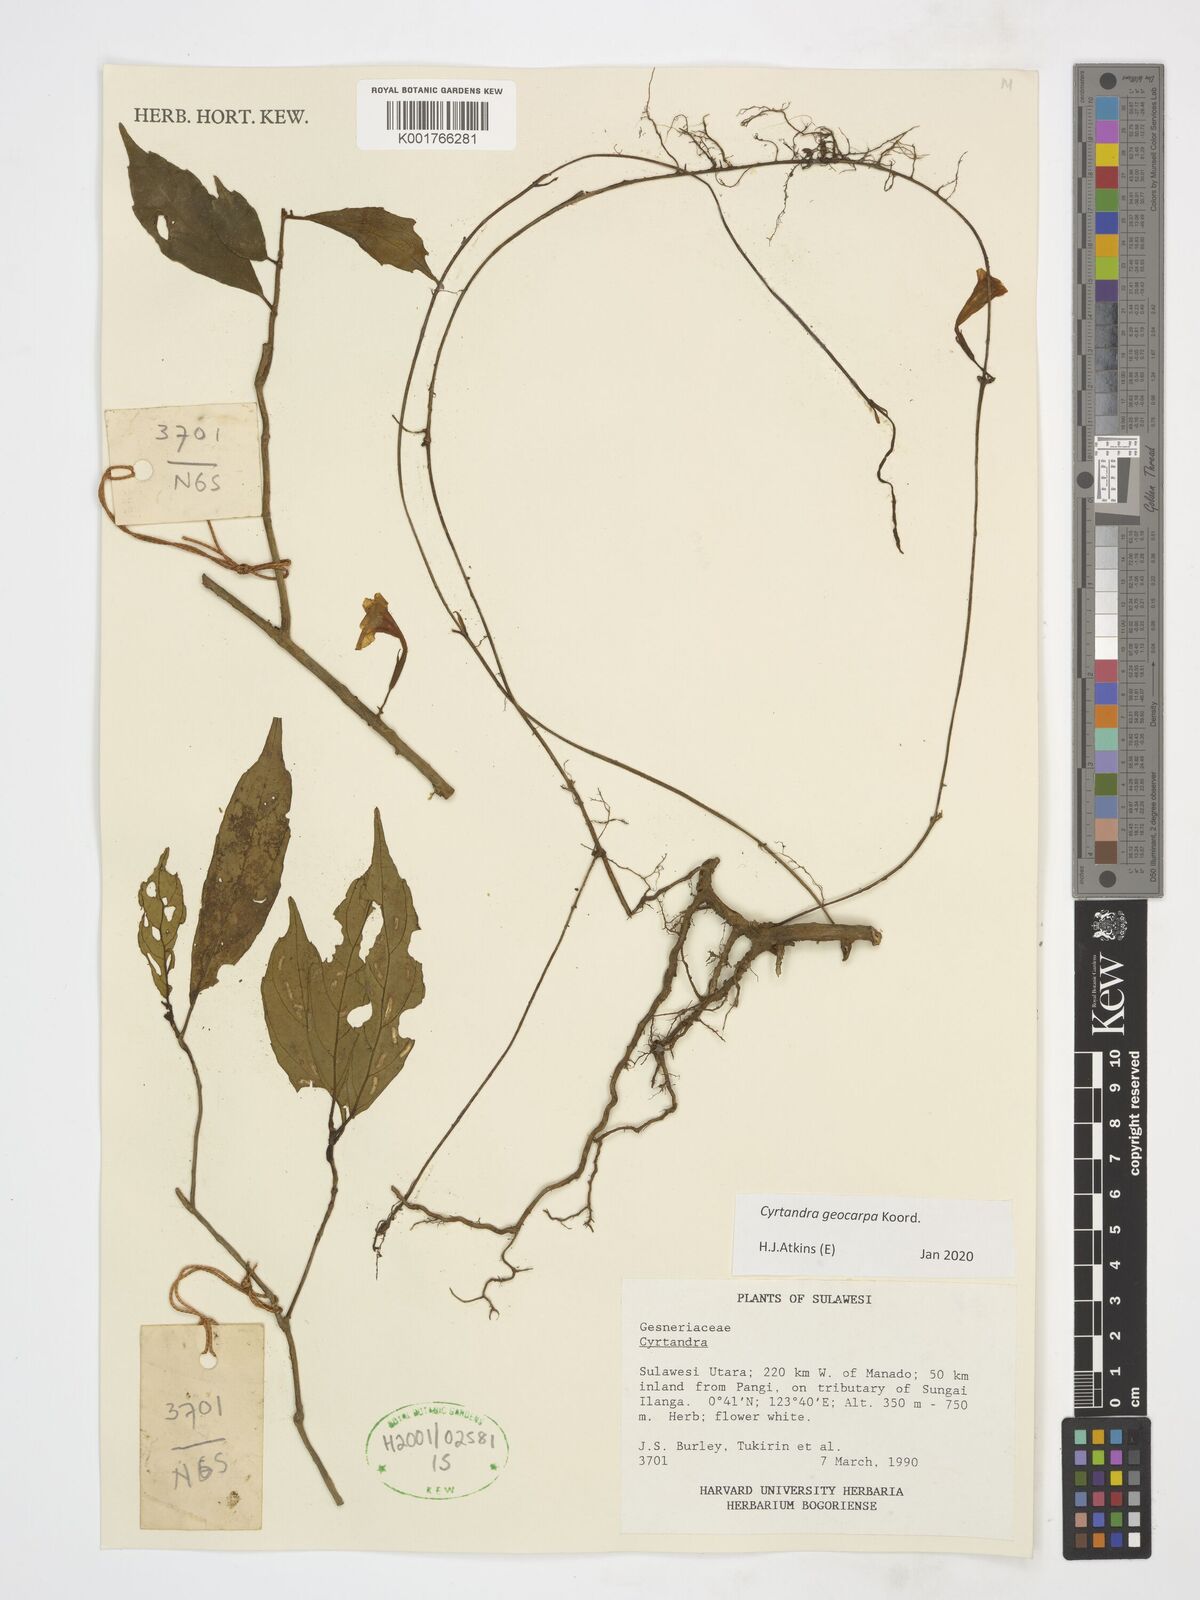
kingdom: Plantae
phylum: Tracheophyta
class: Magnoliopsida
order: Lamiales
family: Gesneriaceae
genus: Cyrtandra
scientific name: Cyrtandra geocarpa
